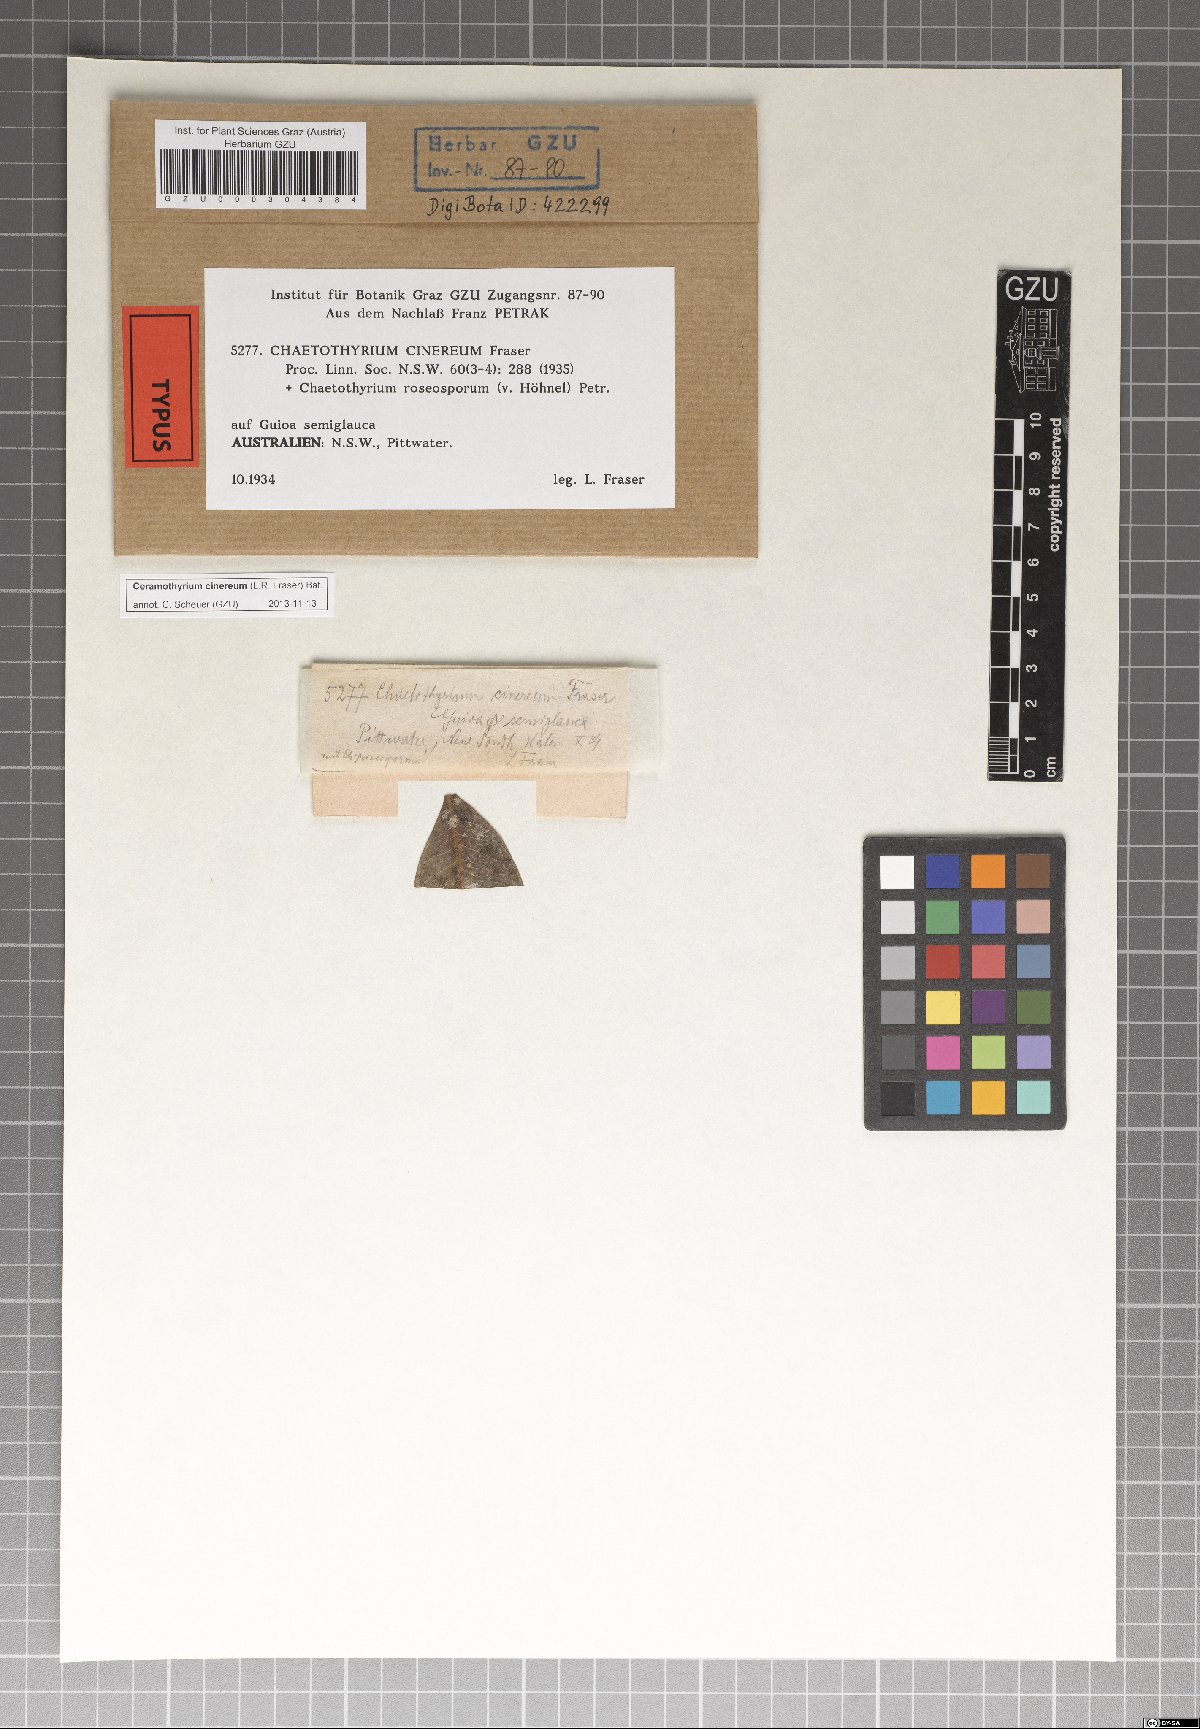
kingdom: Fungi
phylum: Ascomycota
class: Eurotiomycetes
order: Chaetothyriales
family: Chaetothyriaceae
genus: Ceramothyrium
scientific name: Ceramothyrium cinereum
